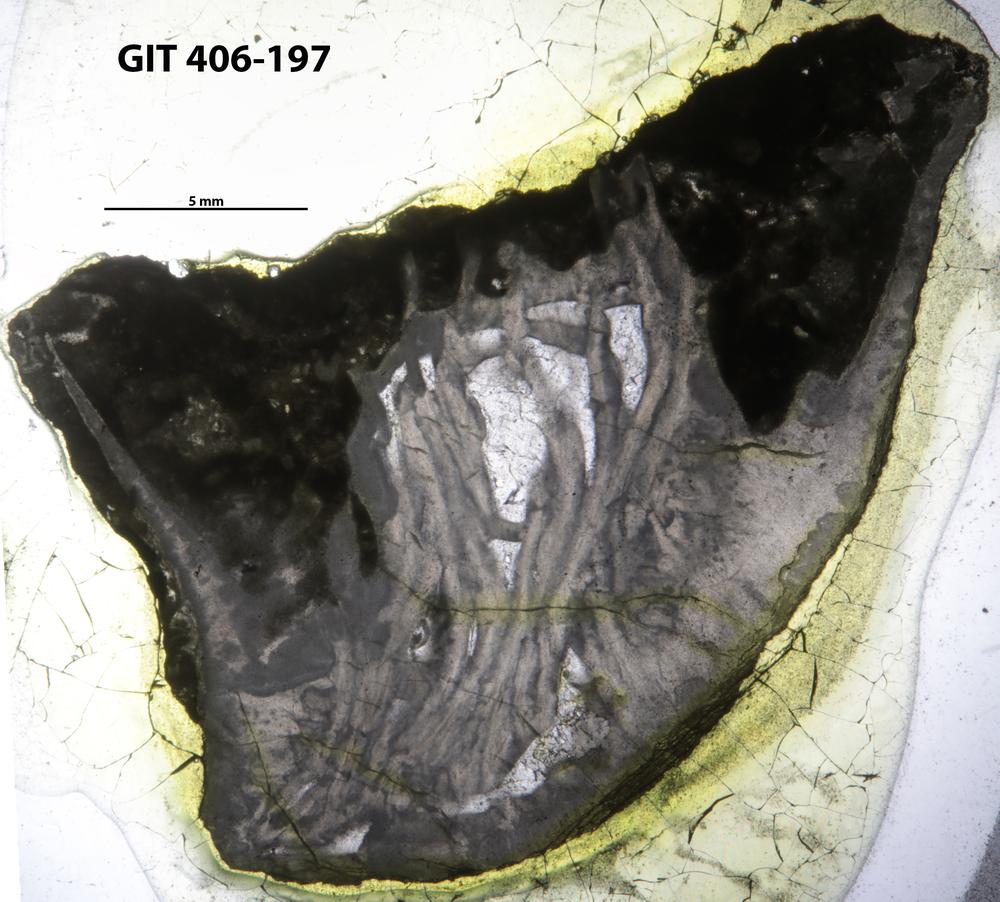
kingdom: Animalia
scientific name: Animalia
